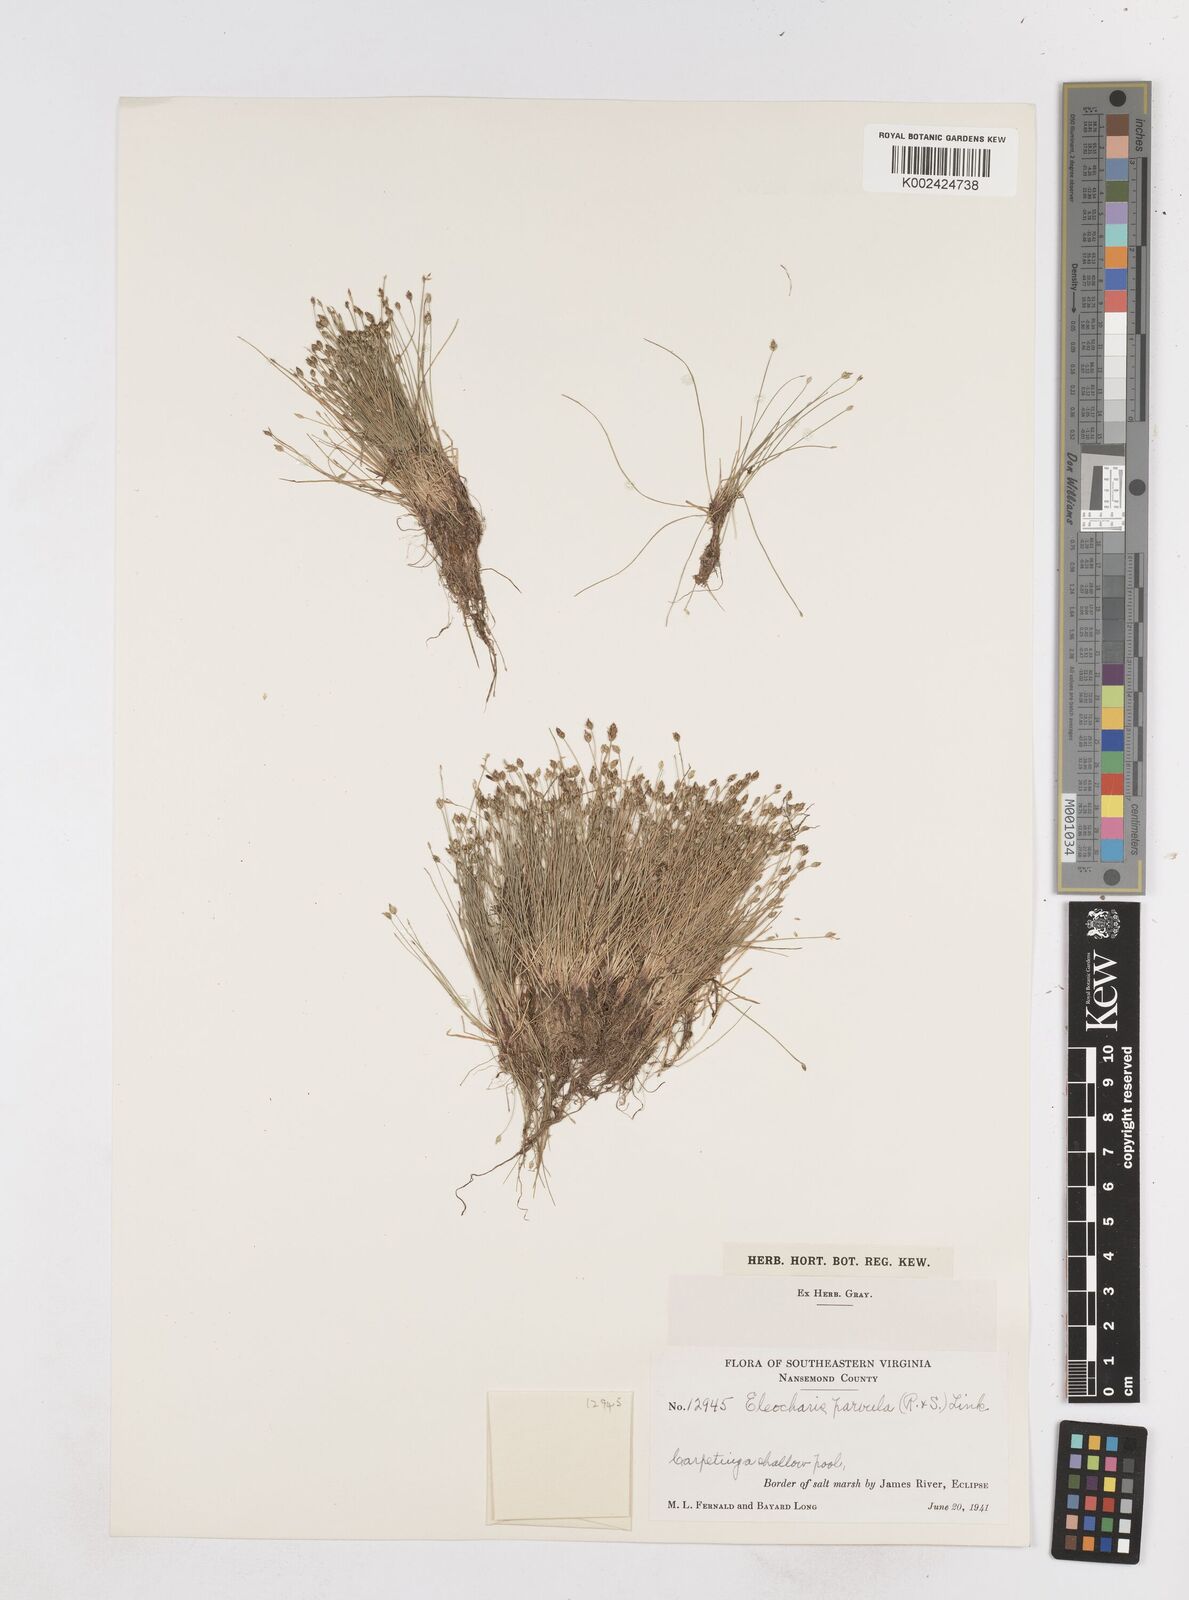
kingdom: Plantae
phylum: Tracheophyta
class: Liliopsida
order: Poales
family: Cyperaceae
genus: Eleocharis
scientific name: Eleocharis parvula
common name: Dwarf spike-rush
